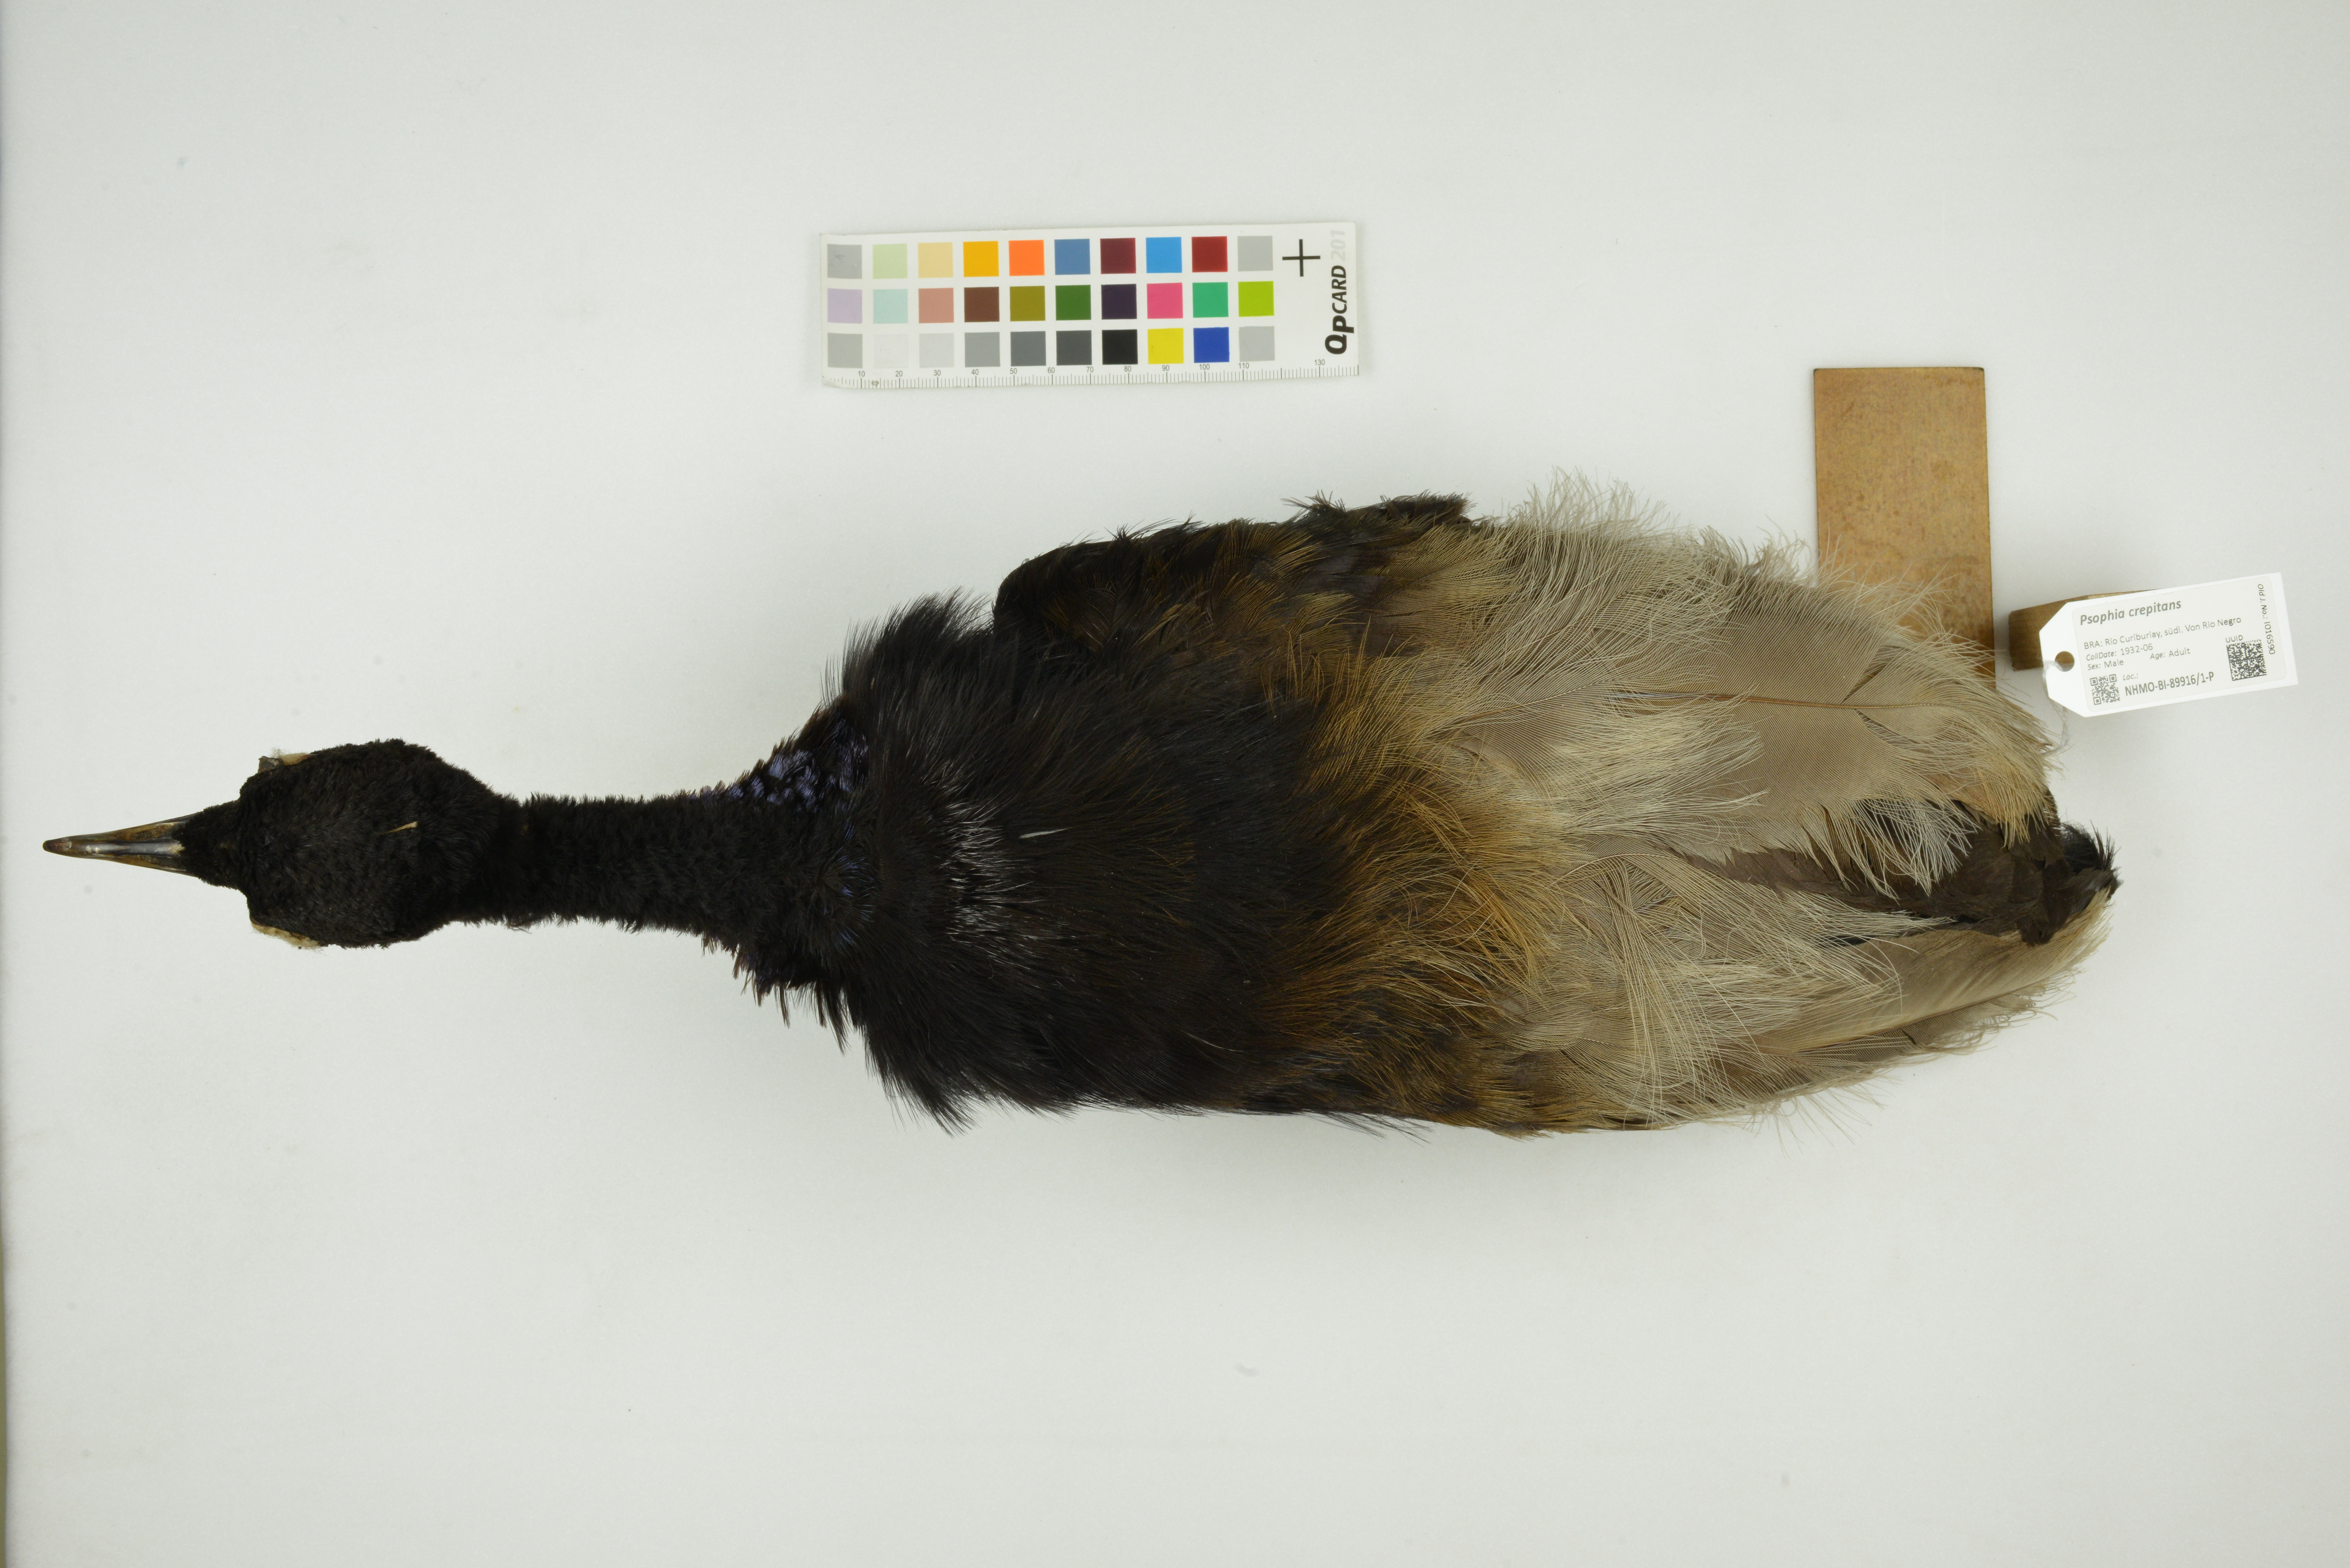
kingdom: Animalia
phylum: Chordata
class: Aves
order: Gruiformes
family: Psophiidae
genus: Psophia
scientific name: Psophia crepitans
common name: Grey-winged trumpeter
